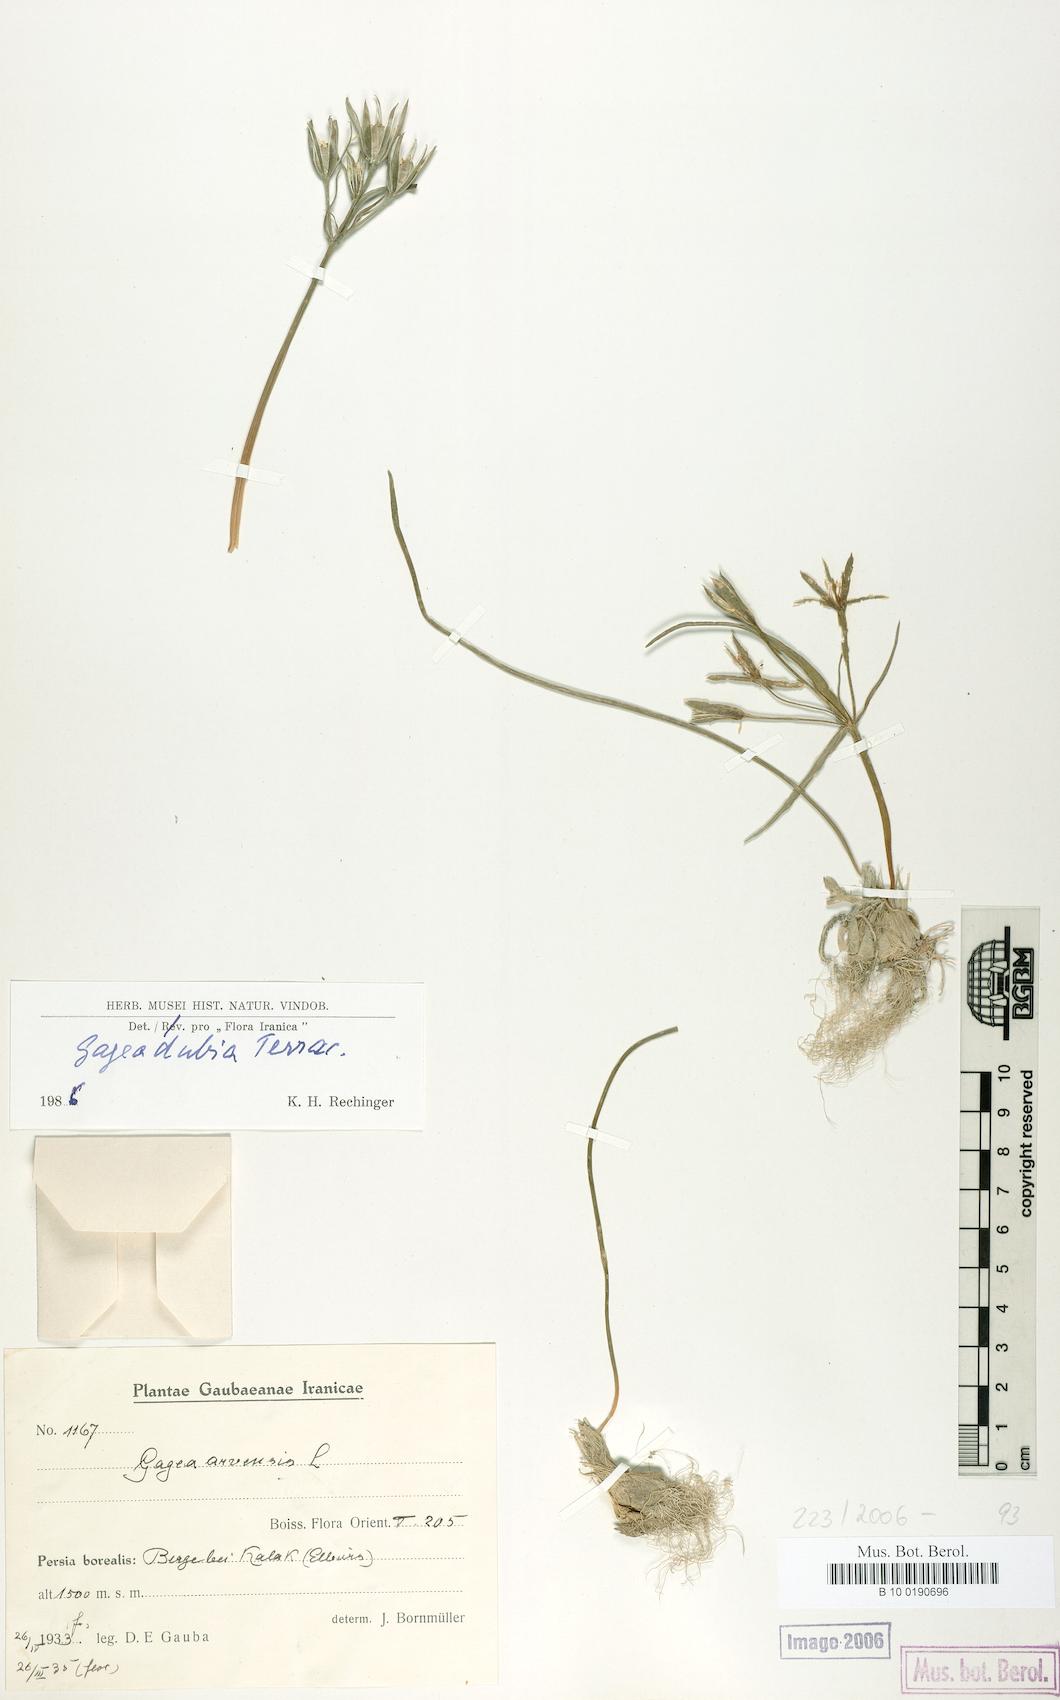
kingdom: Plantae
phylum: Tracheophyta
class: Liliopsida
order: Liliales
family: Liliaceae
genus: Gagea
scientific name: Gagea dubia
